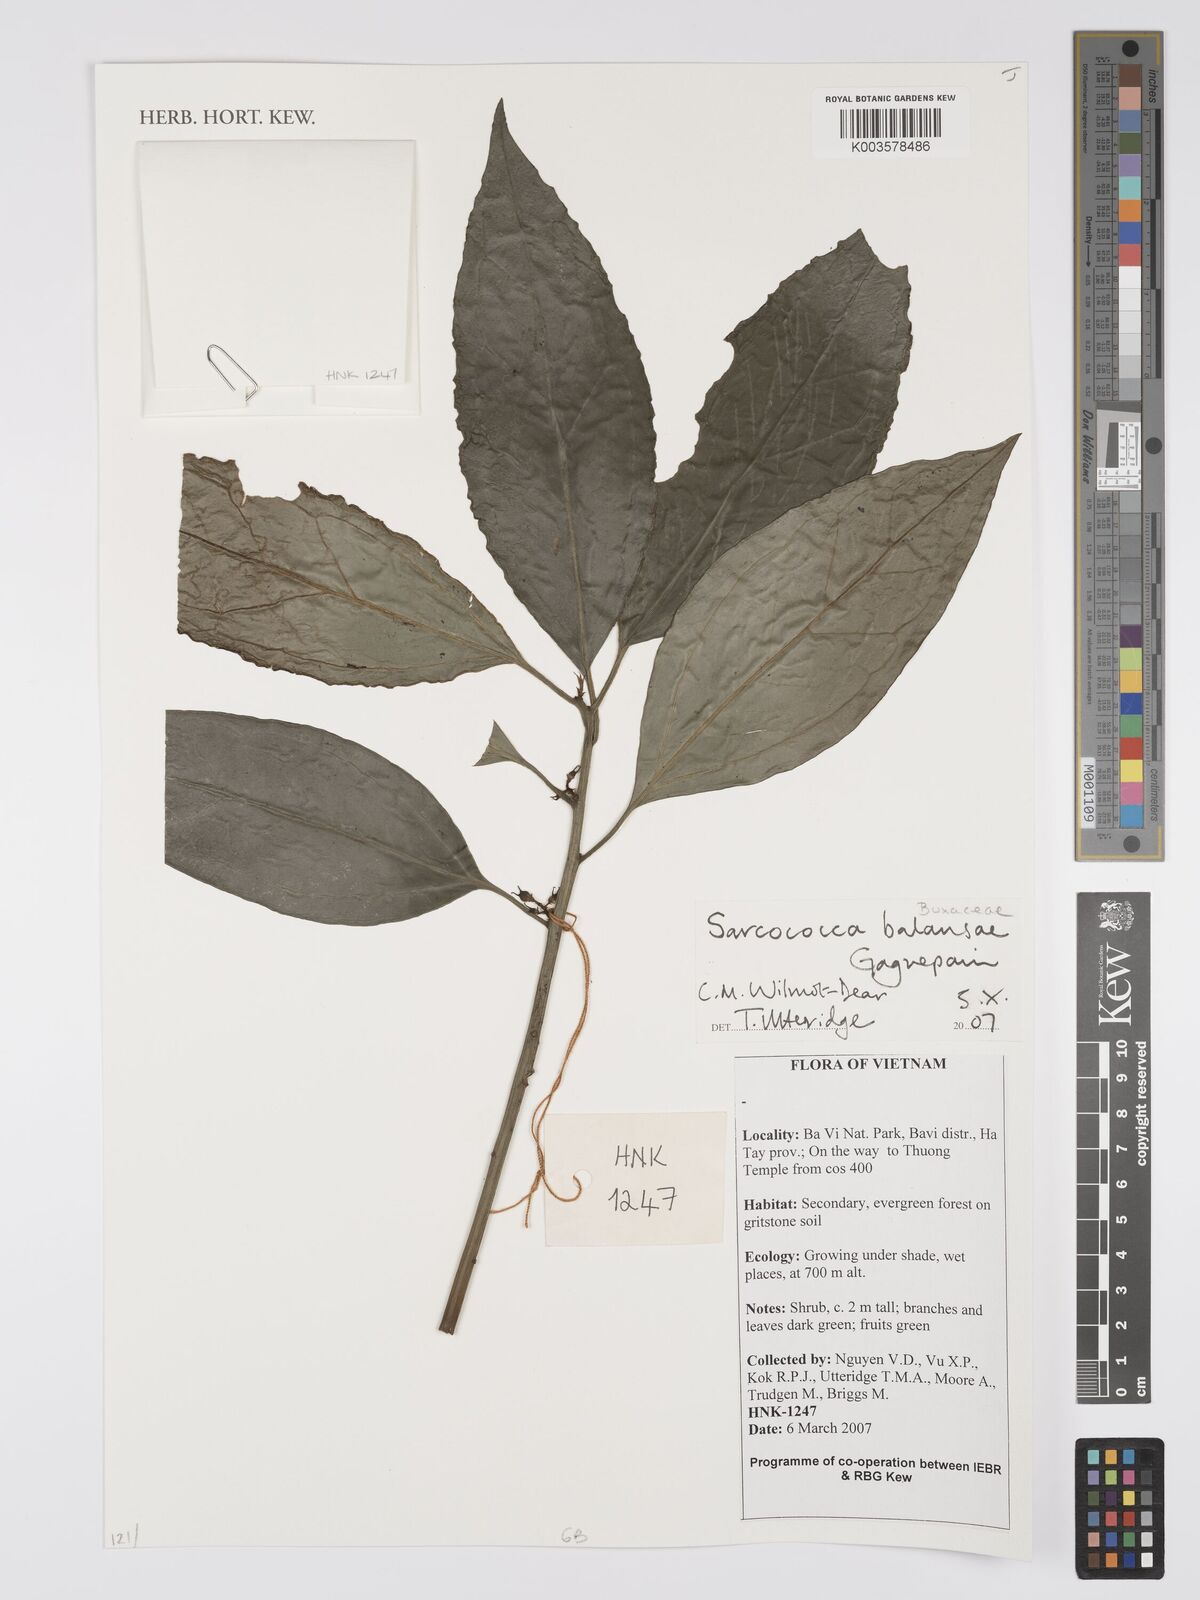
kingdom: Plantae
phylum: Tracheophyta
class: Magnoliopsida
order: Buxales
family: Buxaceae
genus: Sarcococca
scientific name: Sarcococca balansae
